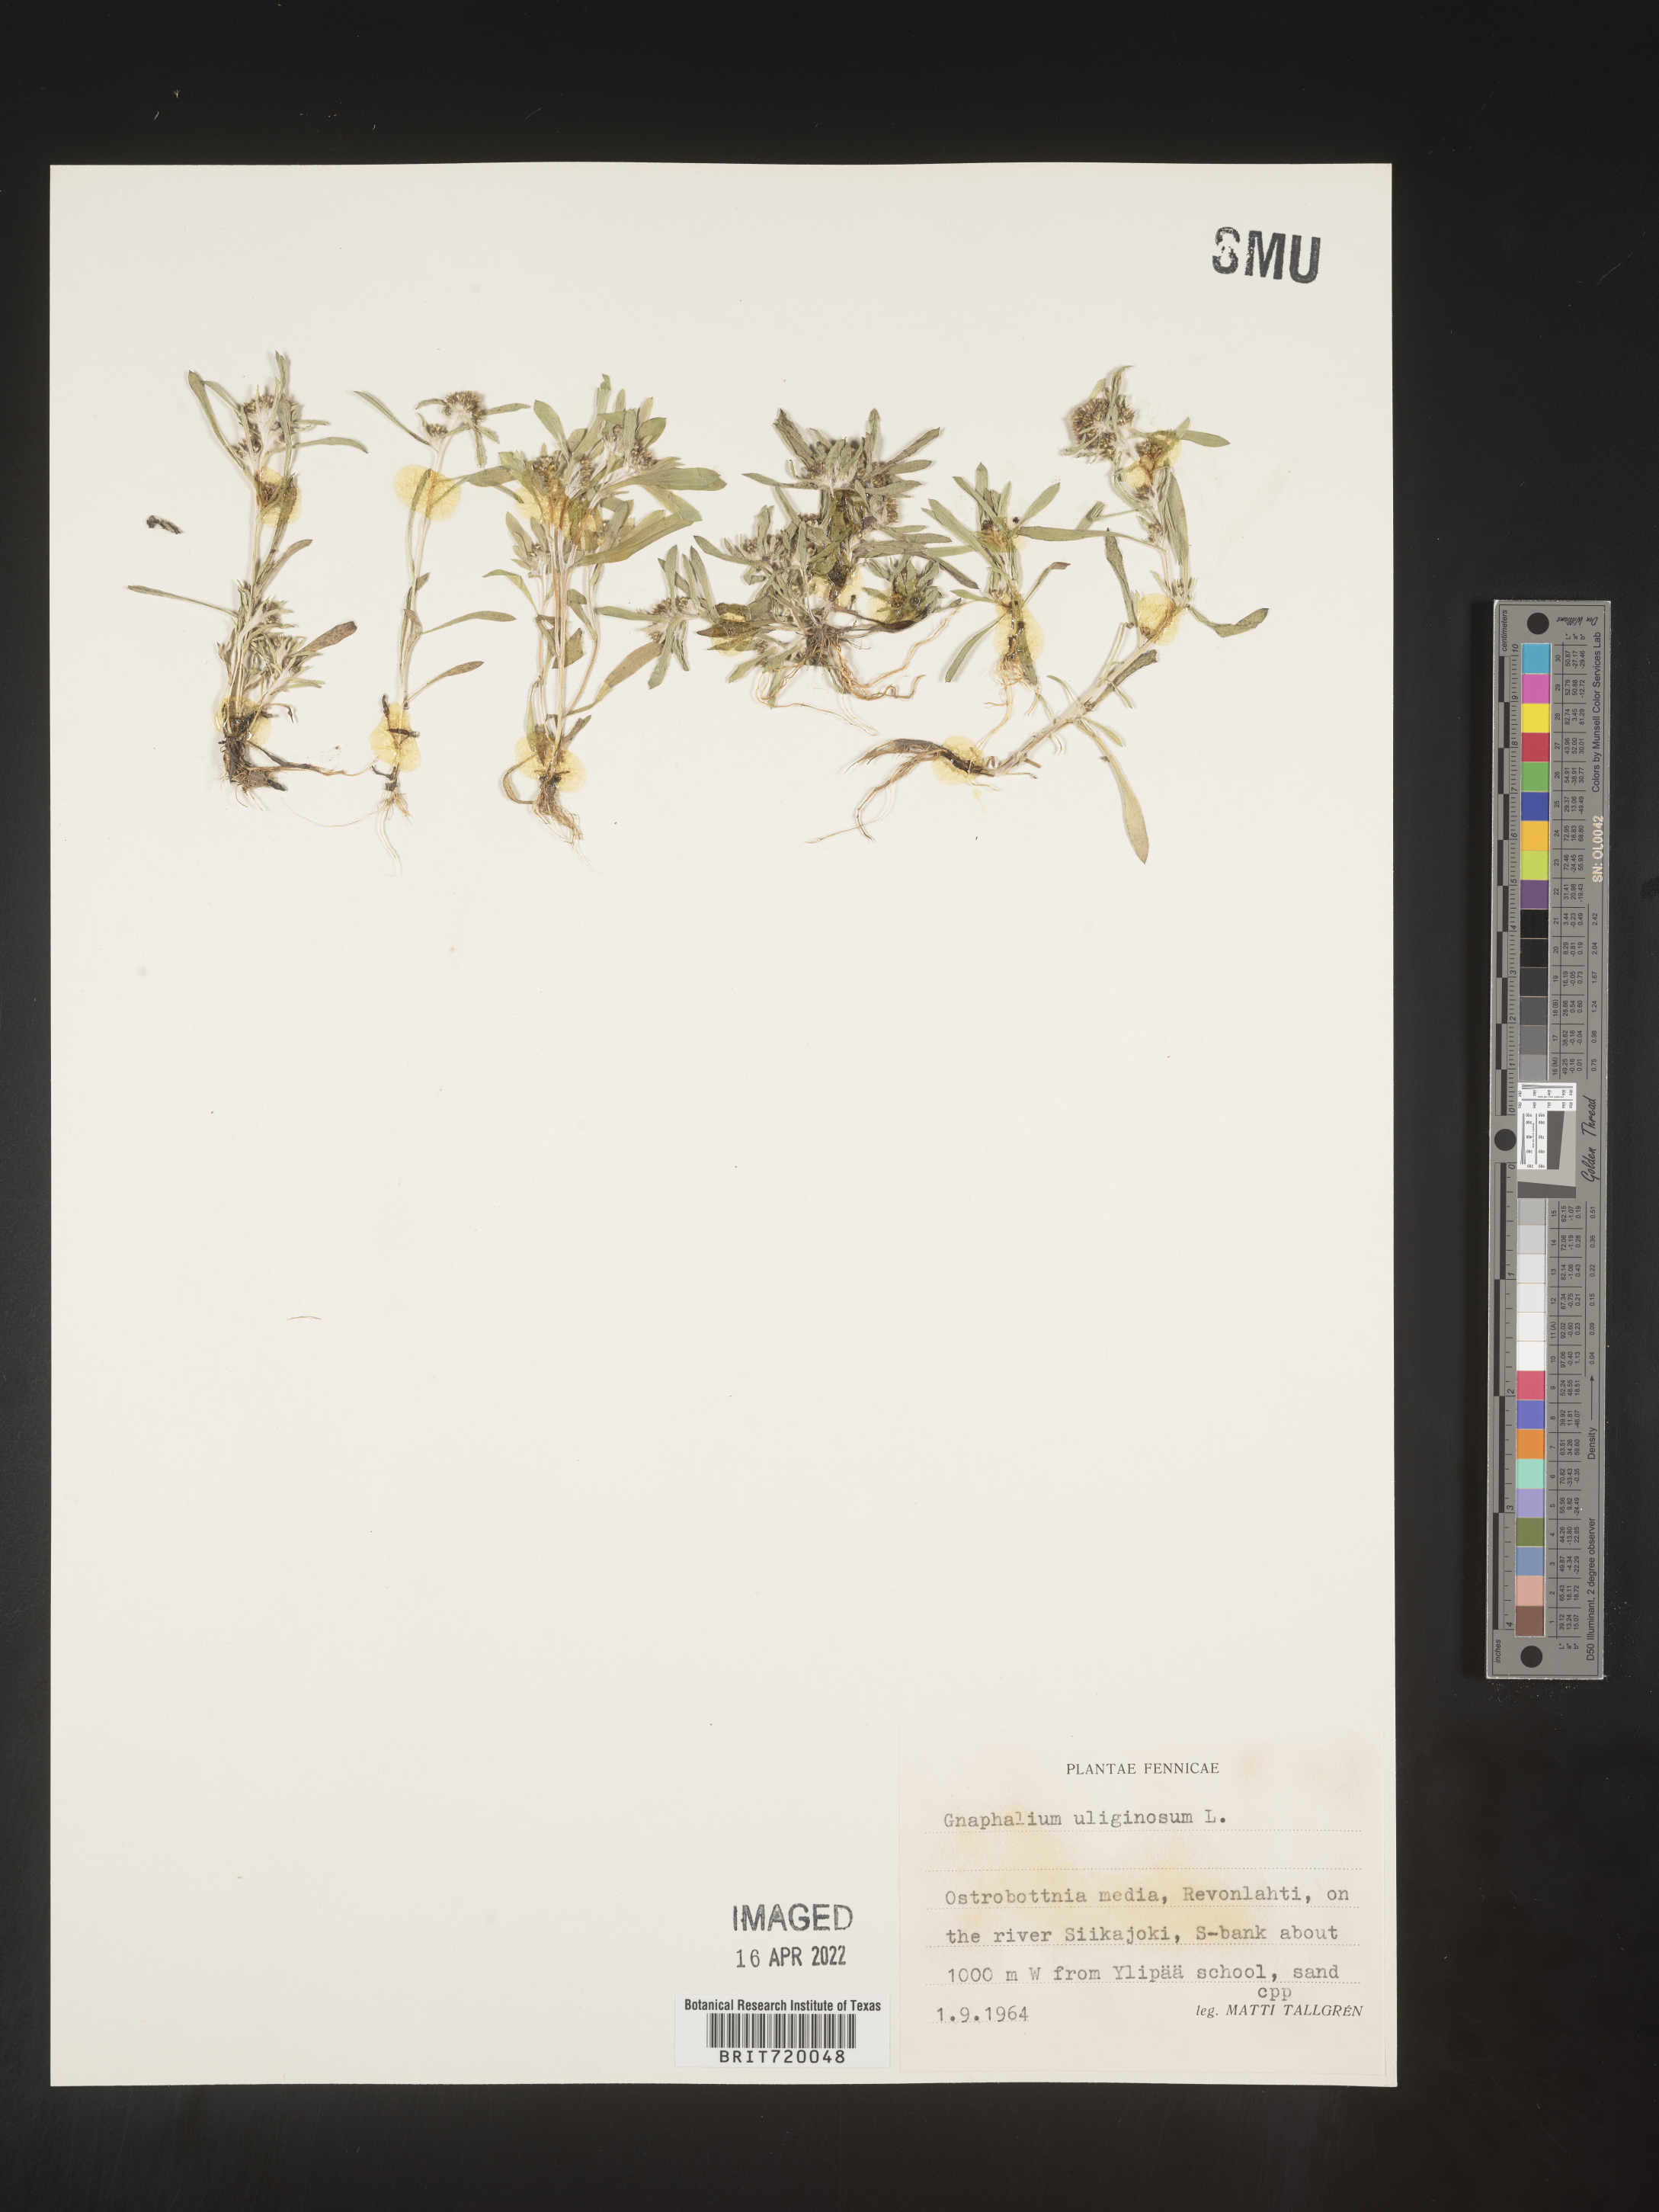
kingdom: Plantae
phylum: Tracheophyta
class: Magnoliopsida
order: Asterales
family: Asteraceae
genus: Gnaphalium
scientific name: Gnaphalium
